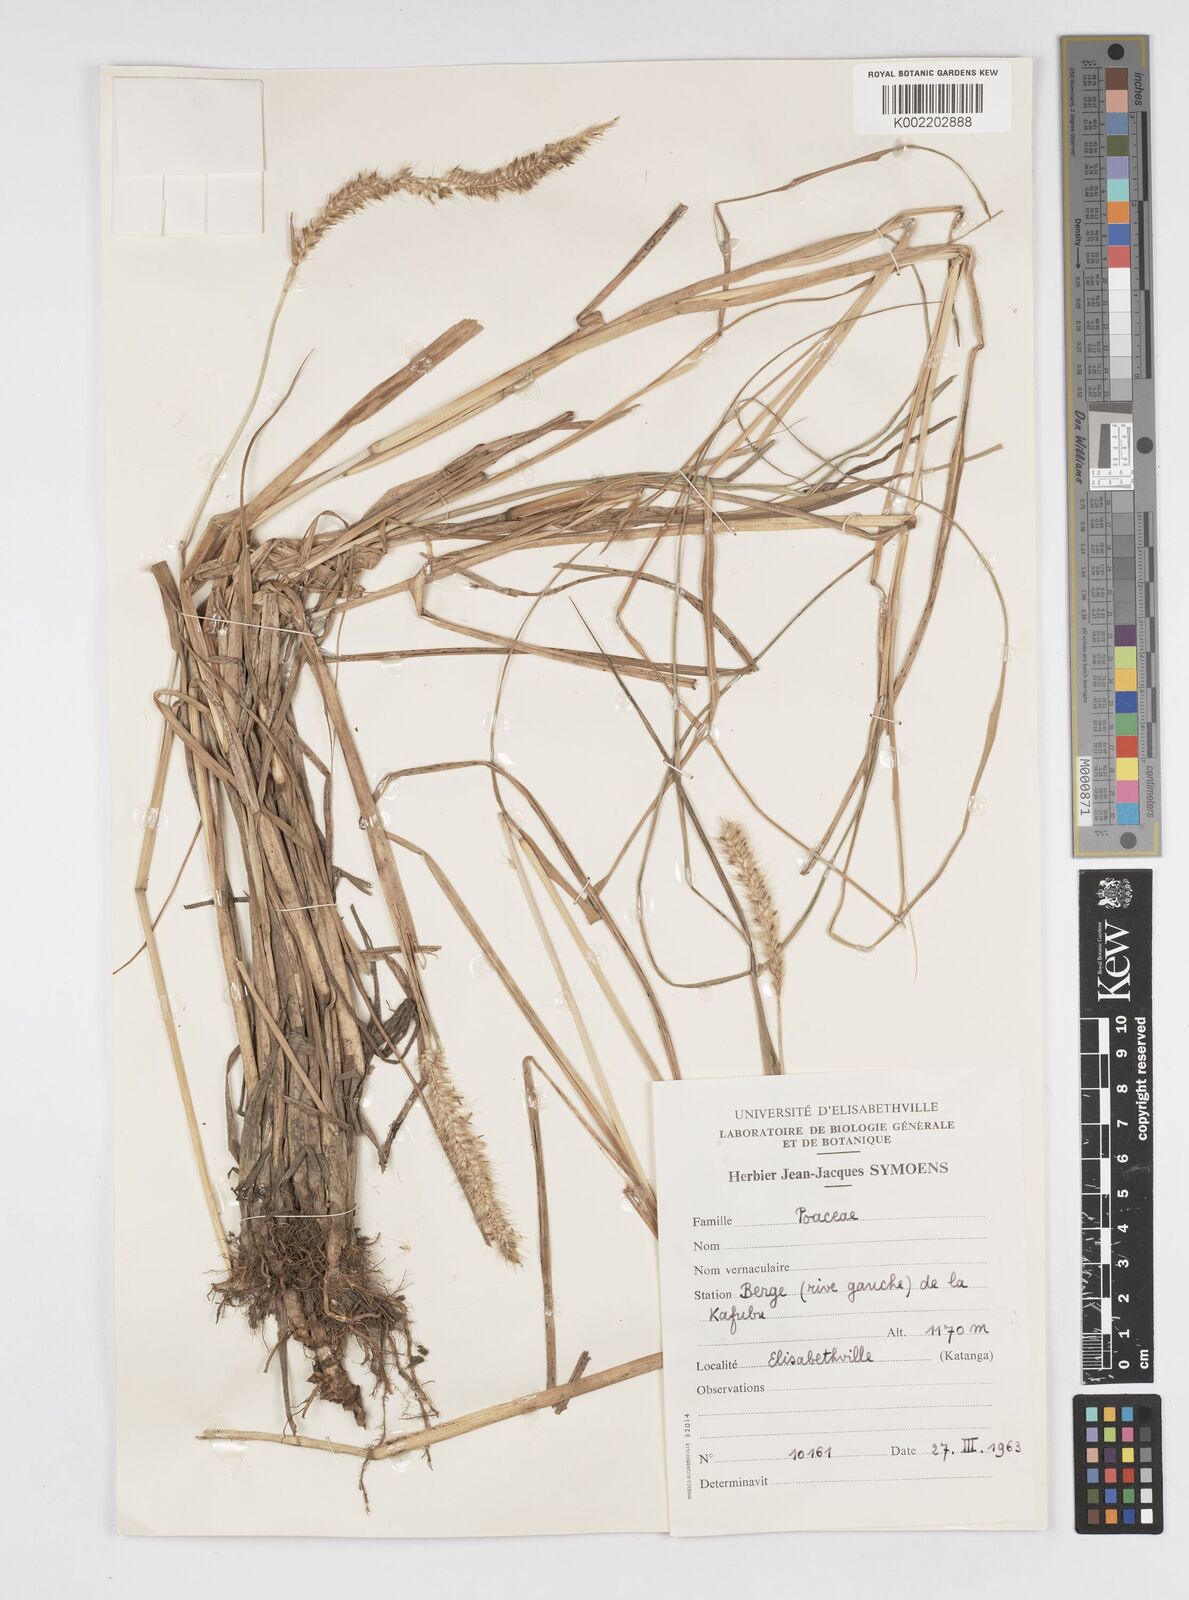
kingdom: Plantae
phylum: Tracheophyta
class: Liliopsida
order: Poales
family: Poaceae
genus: Cenchrus
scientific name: Cenchrus caudatus
